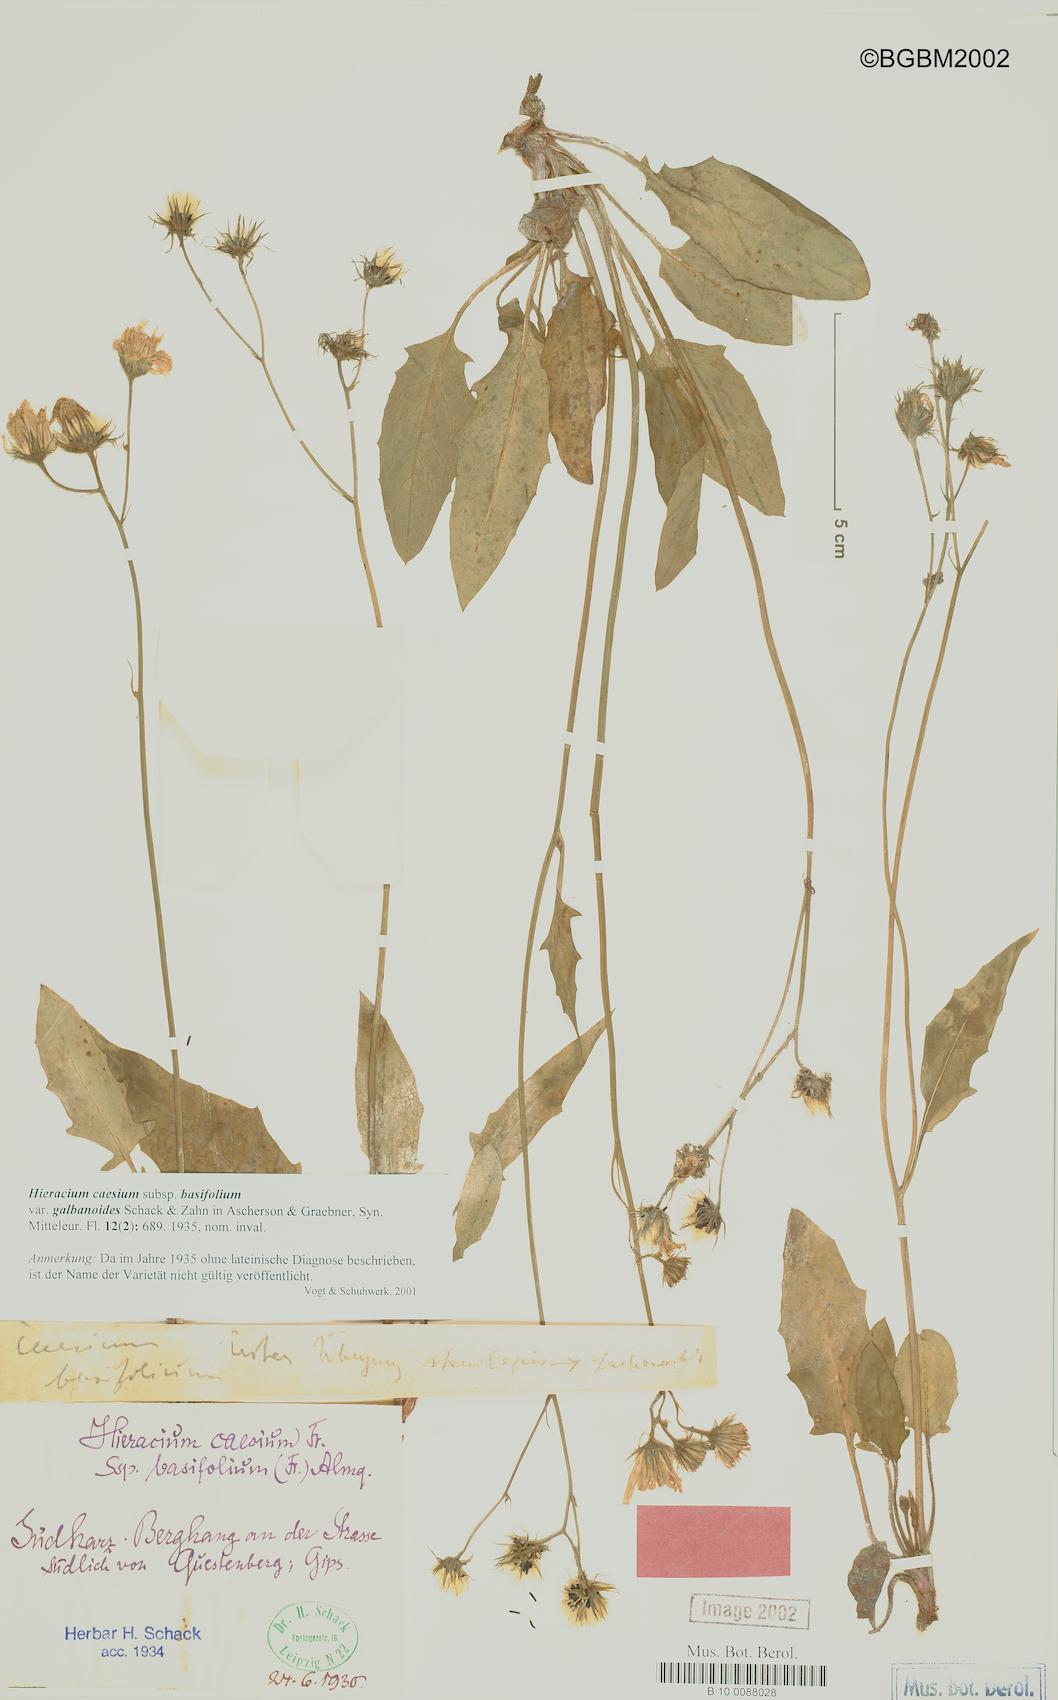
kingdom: Plantae
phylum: Tracheophyta
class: Magnoliopsida
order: Asterales
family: Asteraceae
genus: Hieracium
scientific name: Hieracium caesium
